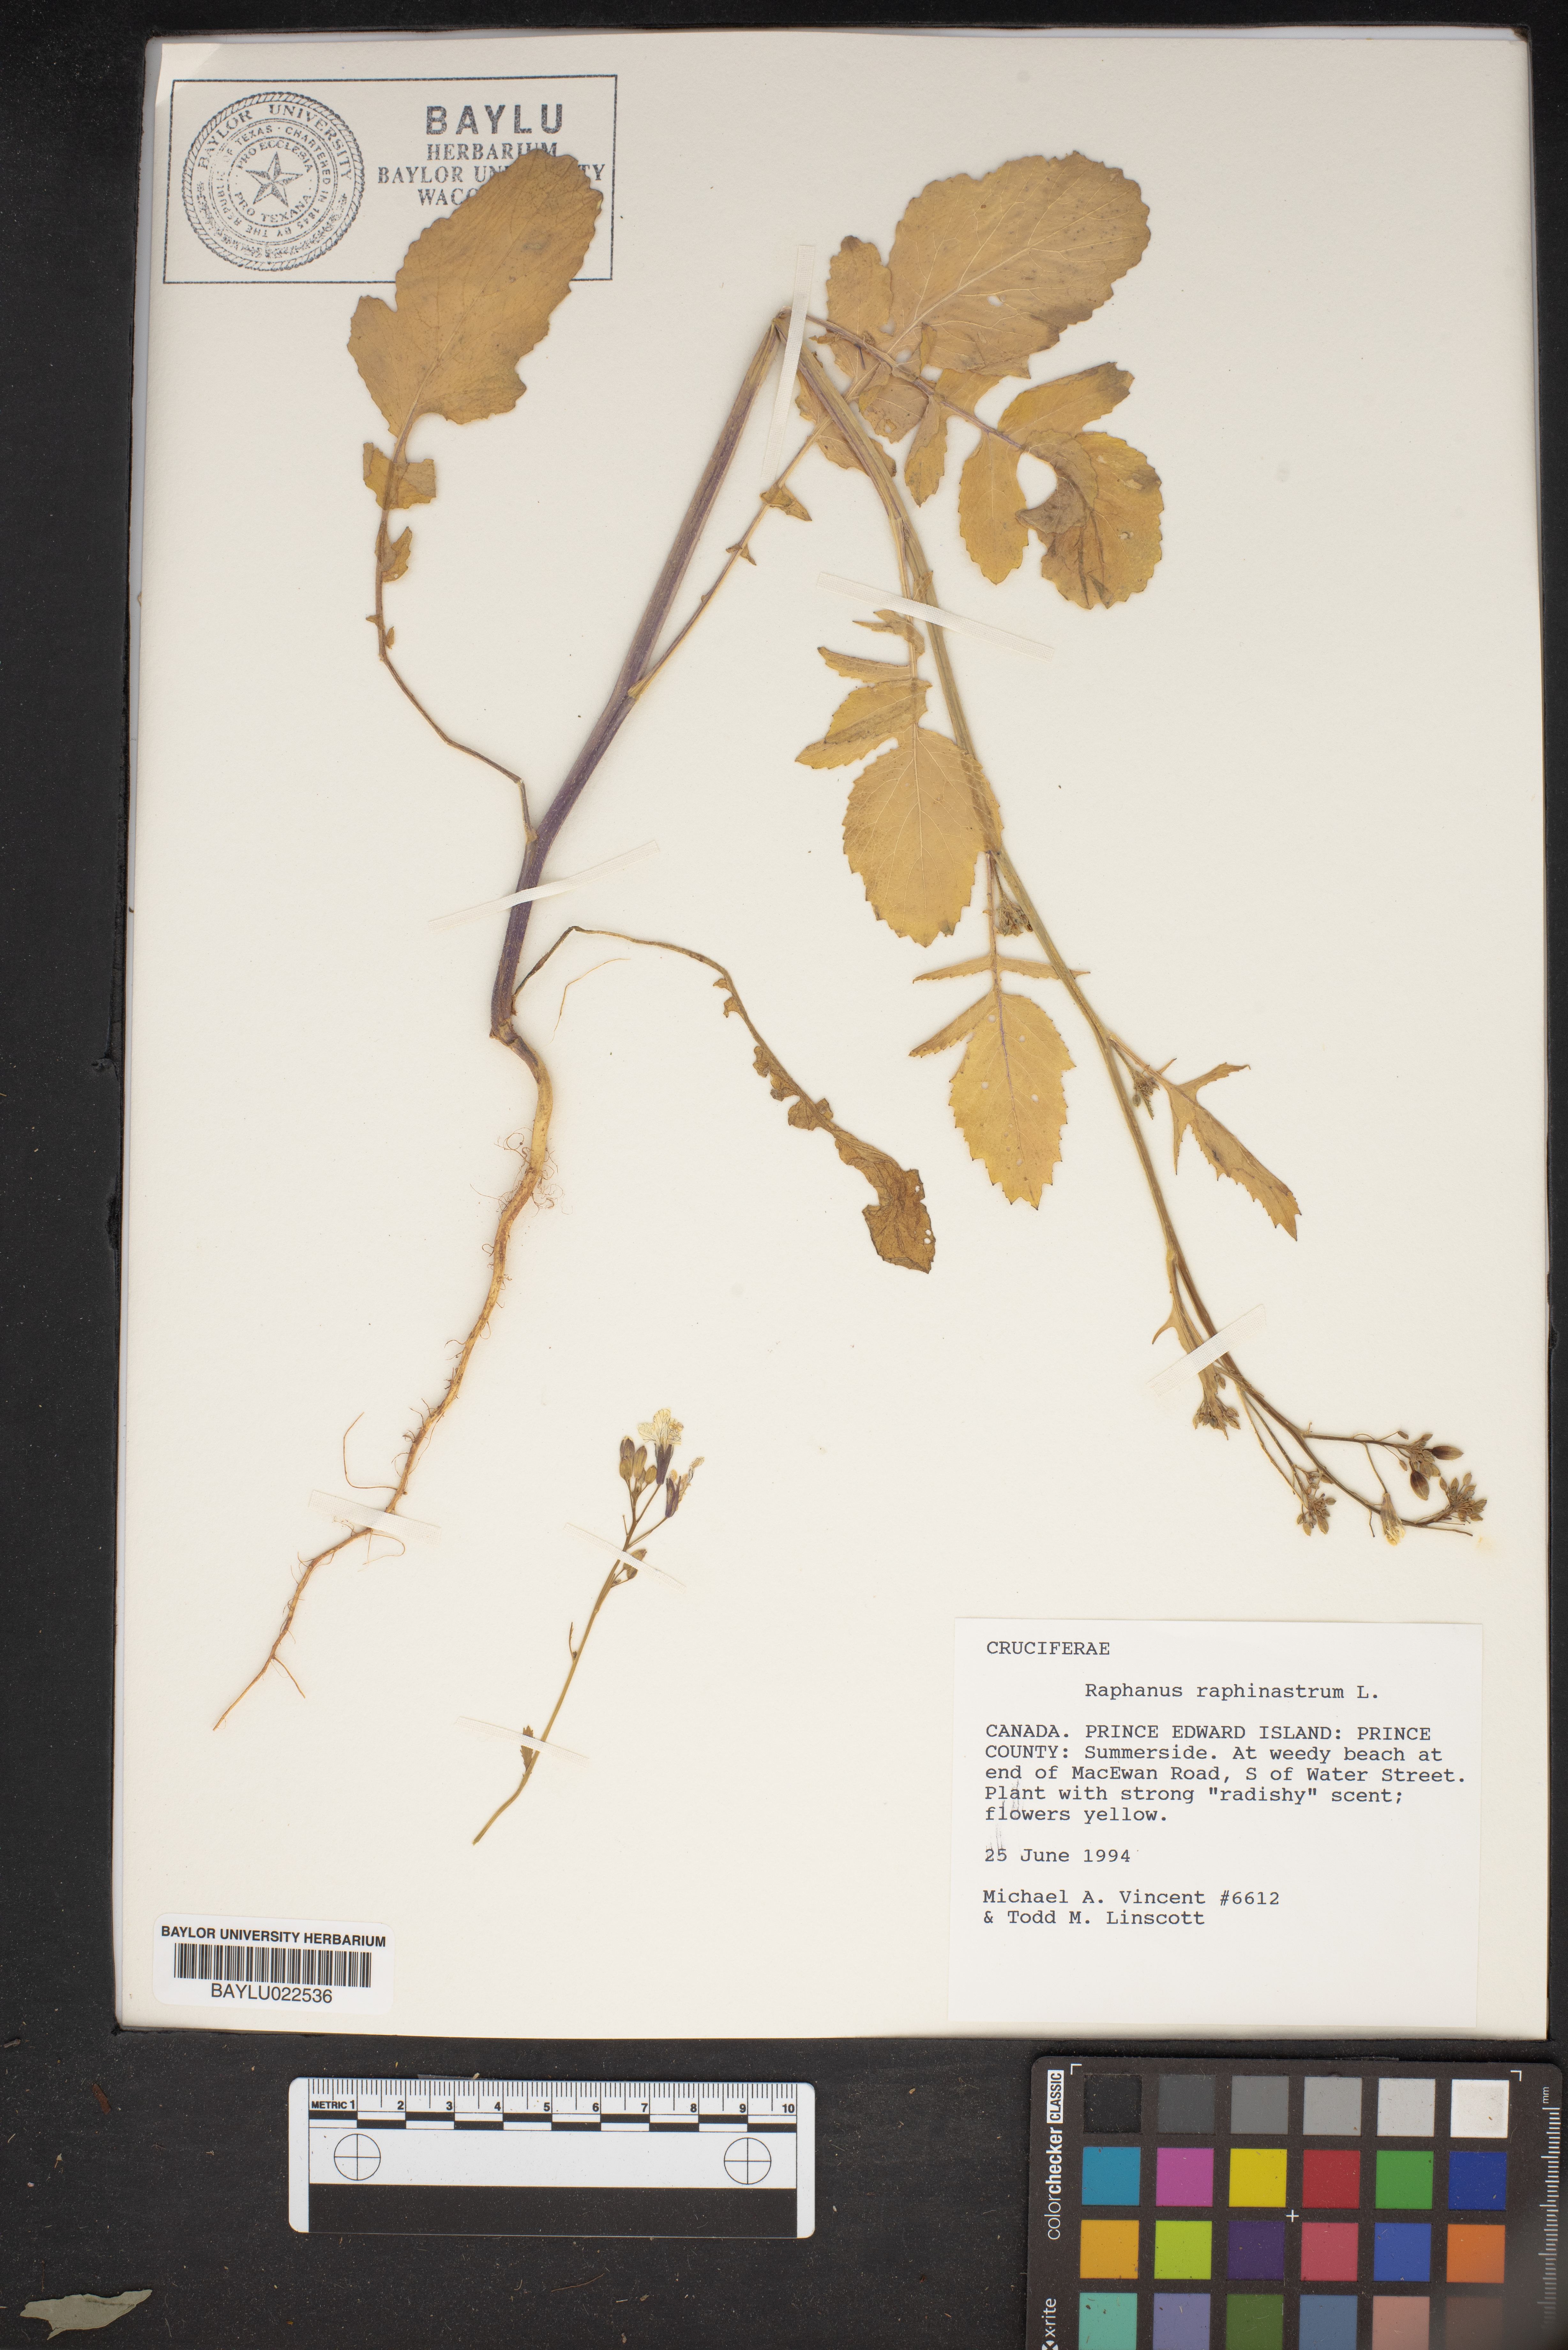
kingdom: Plantae
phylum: Tracheophyta
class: Magnoliopsida
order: Brassicales
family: Brassicaceae
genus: Raphanus
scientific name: Raphanus raphanistrum
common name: Wild radish
